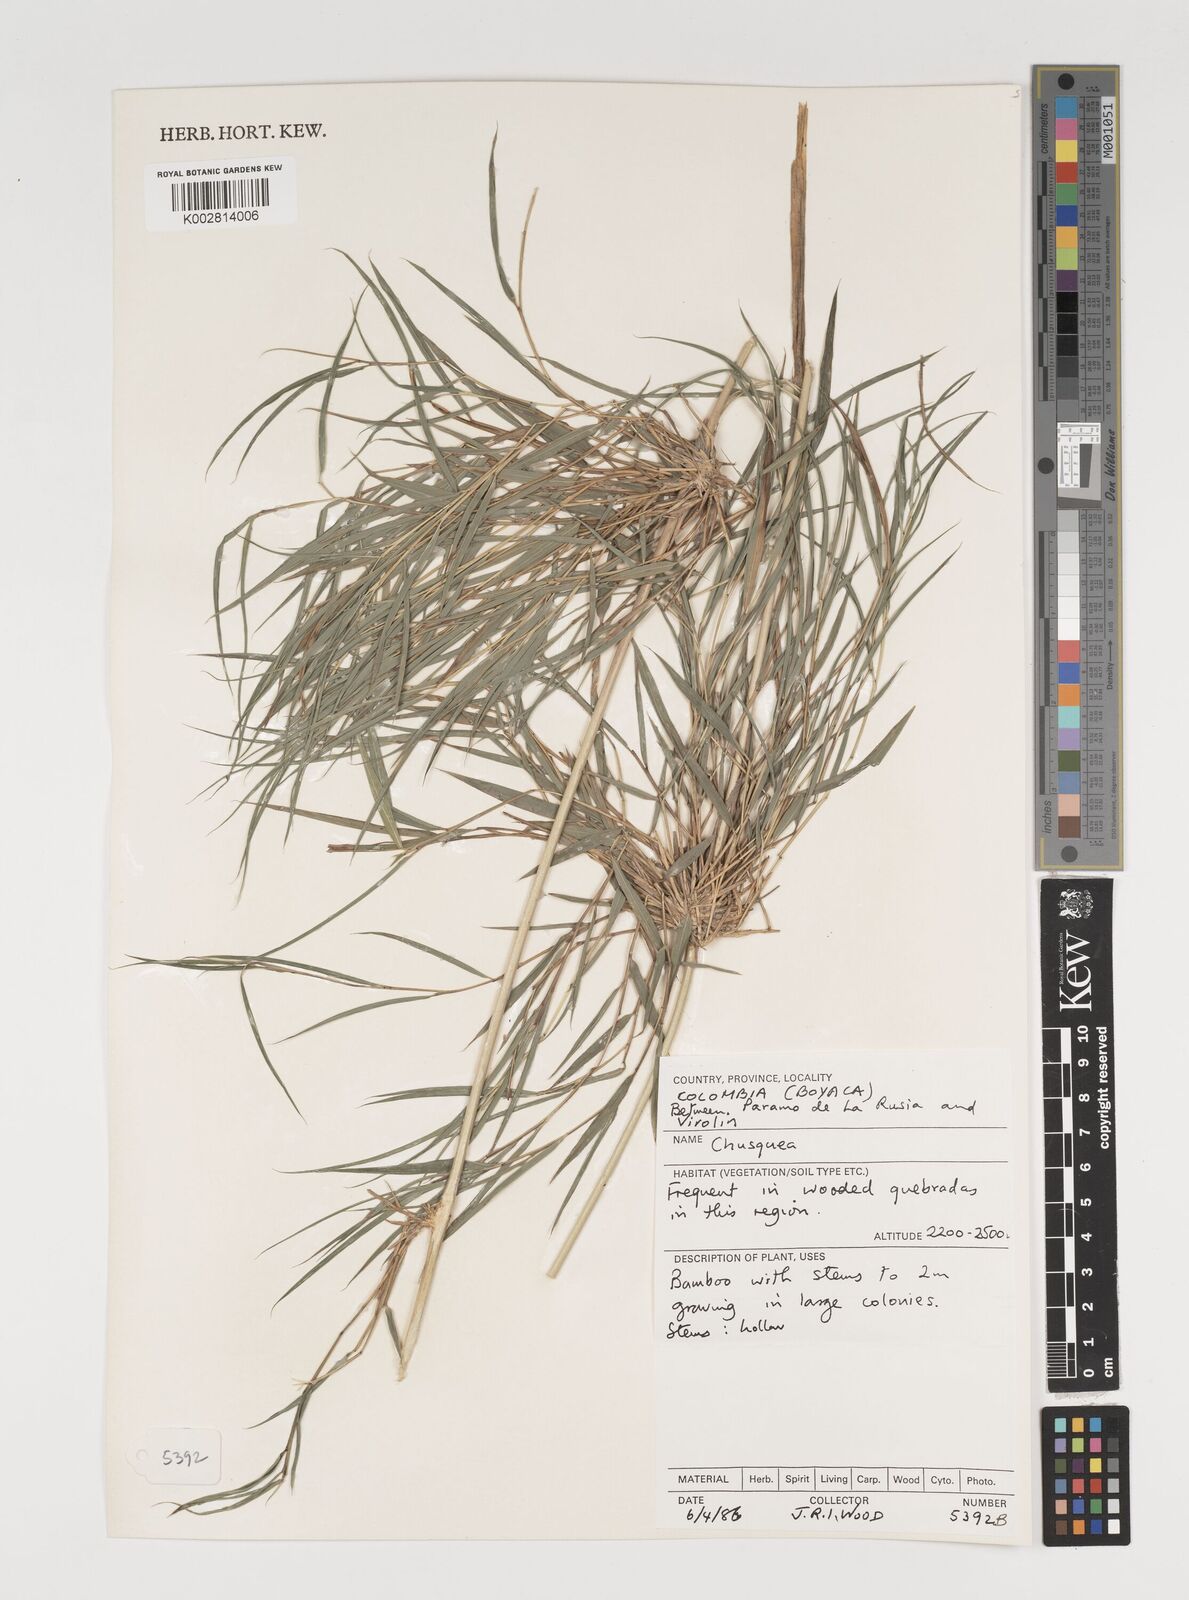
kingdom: Plantae
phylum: Tracheophyta
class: Liliopsida
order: Poales
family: Poaceae
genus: Chusquea
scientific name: Chusquea
